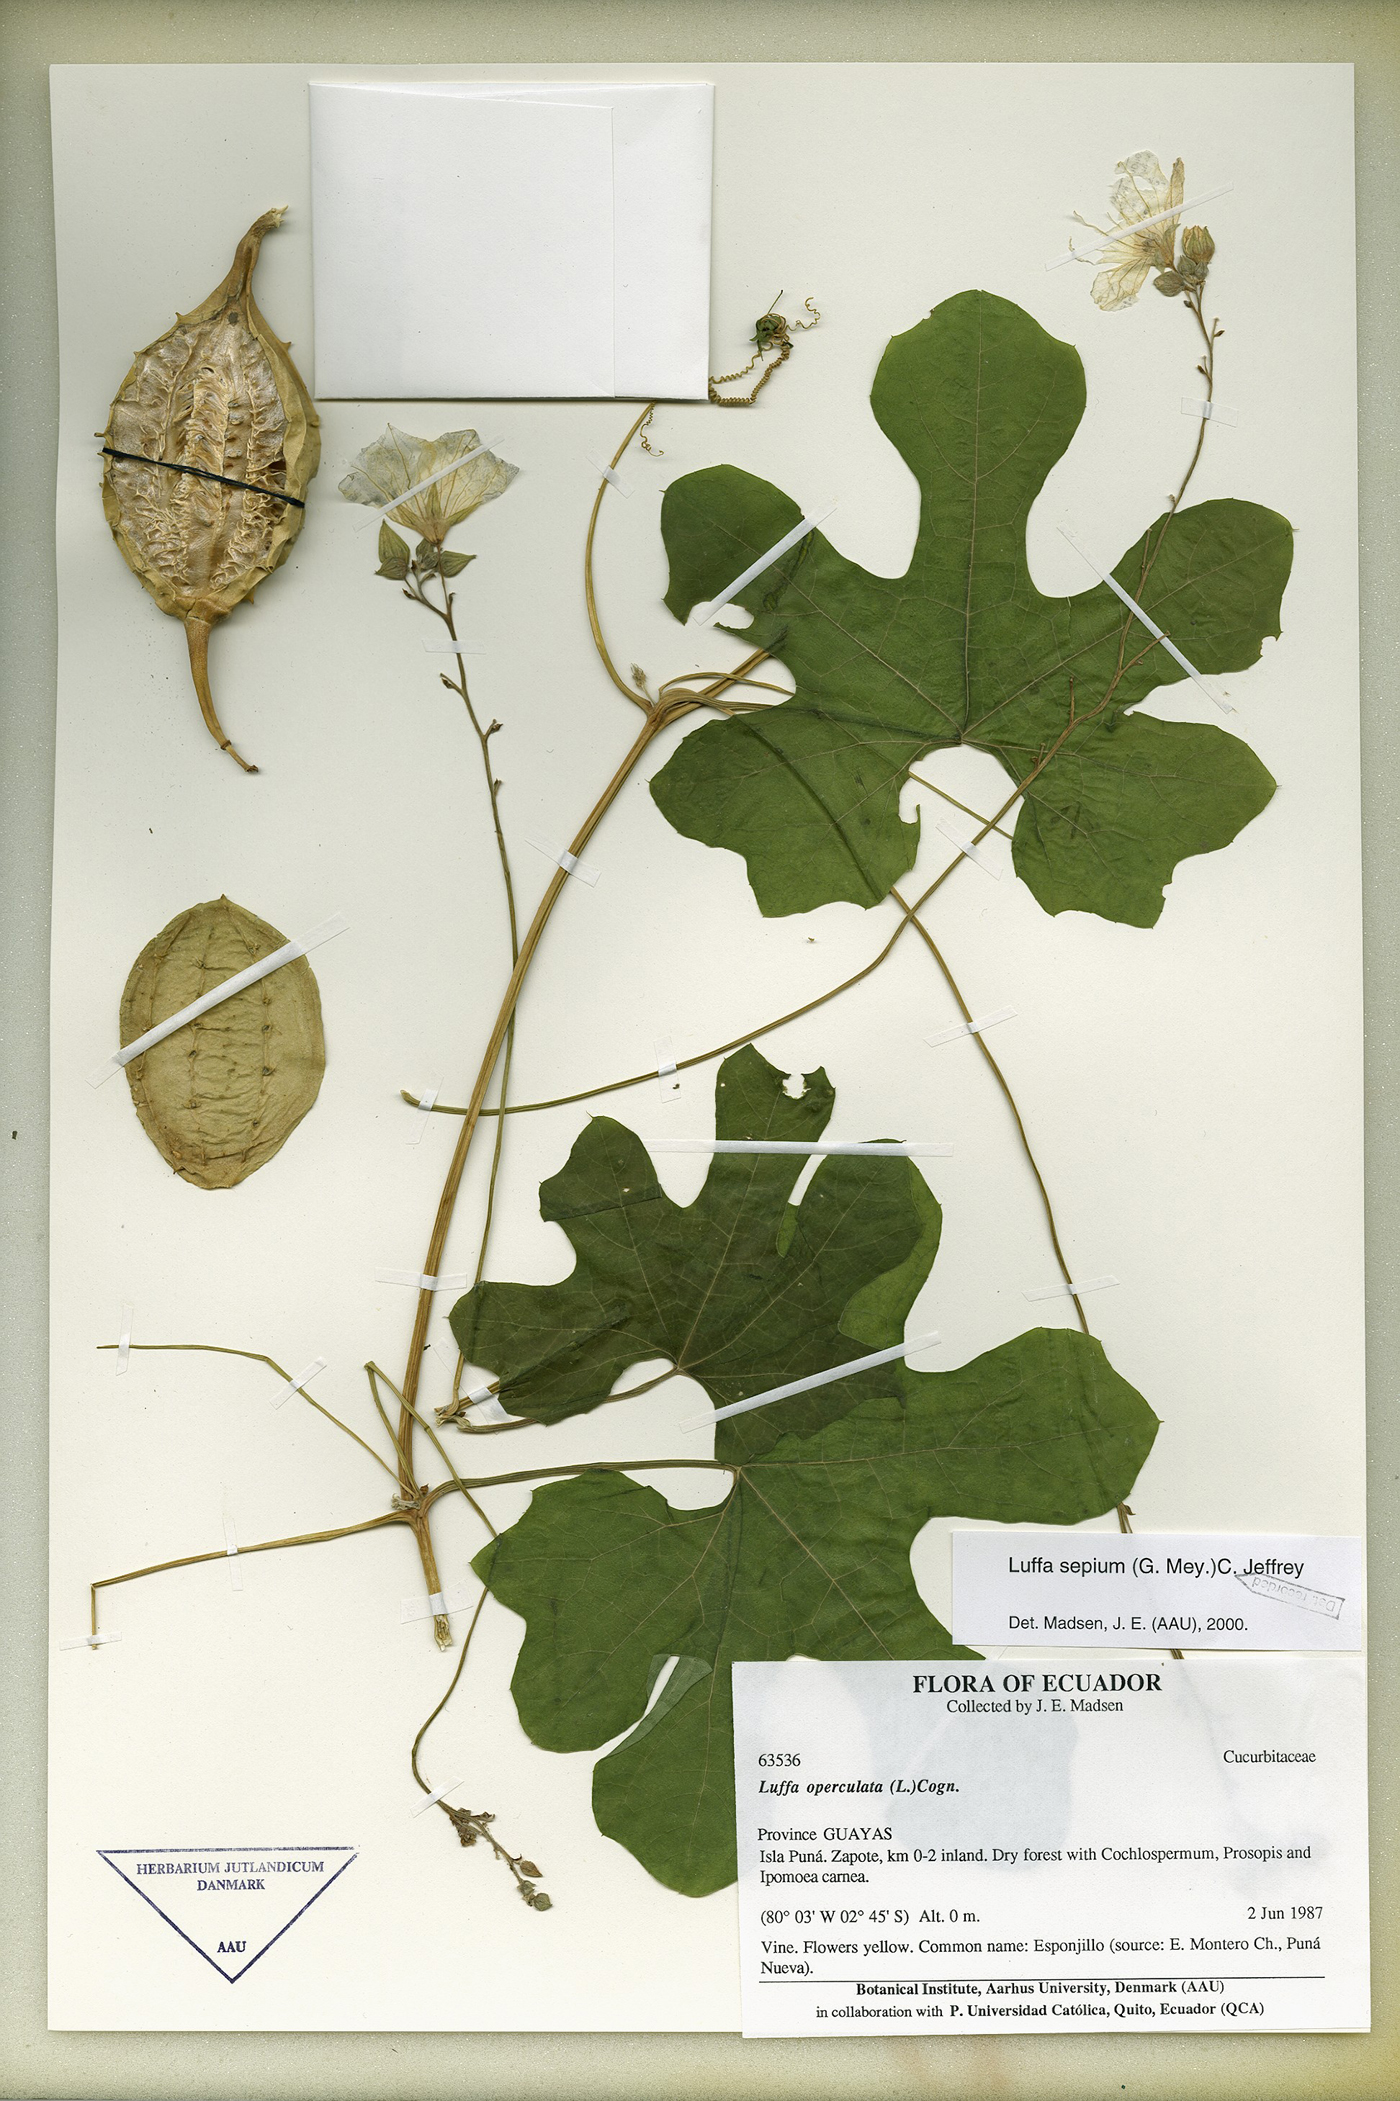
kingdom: Plantae
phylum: Tracheophyta
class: Magnoliopsida
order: Cucurbitales
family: Cucurbitaceae
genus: Luffa
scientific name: Luffa astorii
